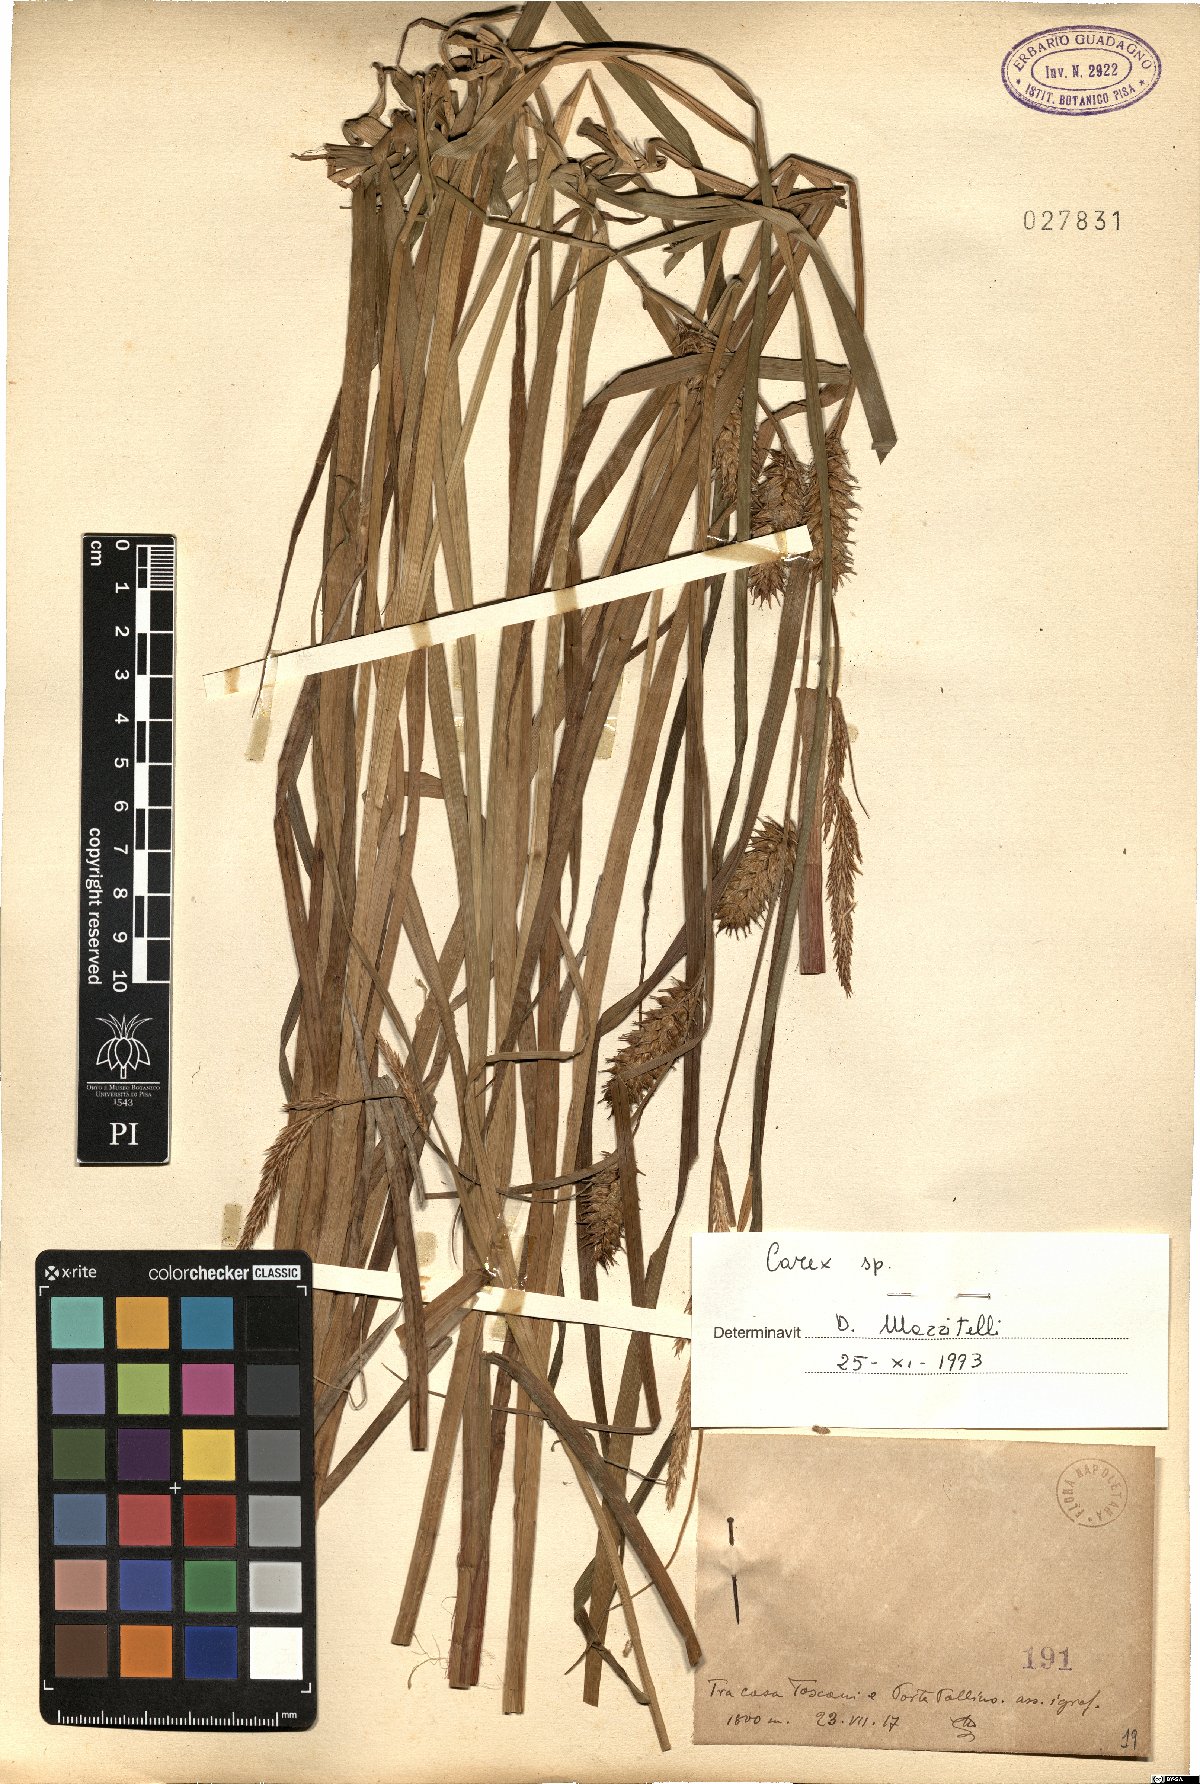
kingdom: Plantae
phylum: Tracheophyta
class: Liliopsida
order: Poales
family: Cyperaceae
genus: Carex
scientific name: Carex
